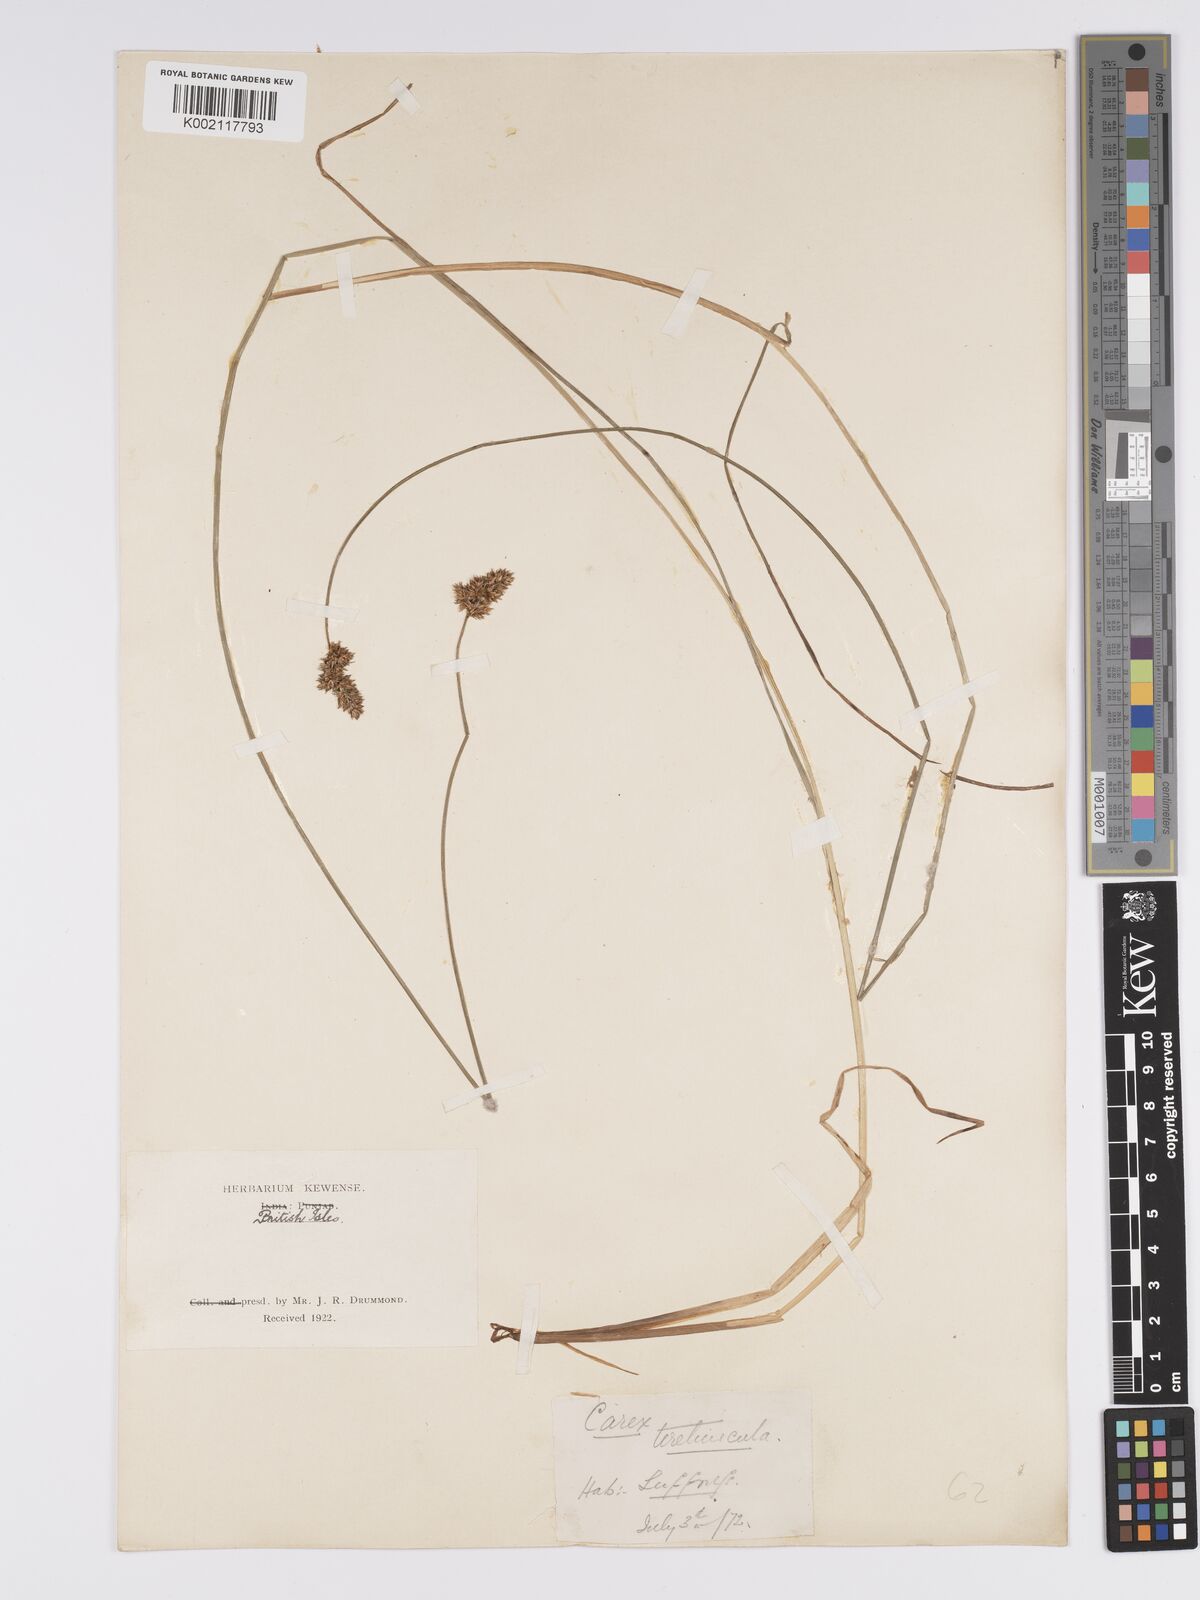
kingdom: Plantae
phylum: Tracheophyta
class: Liliopsida
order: Poales
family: Cyperaceae
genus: Carex
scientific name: Carex diandra
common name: Lesser tussock-sedge
